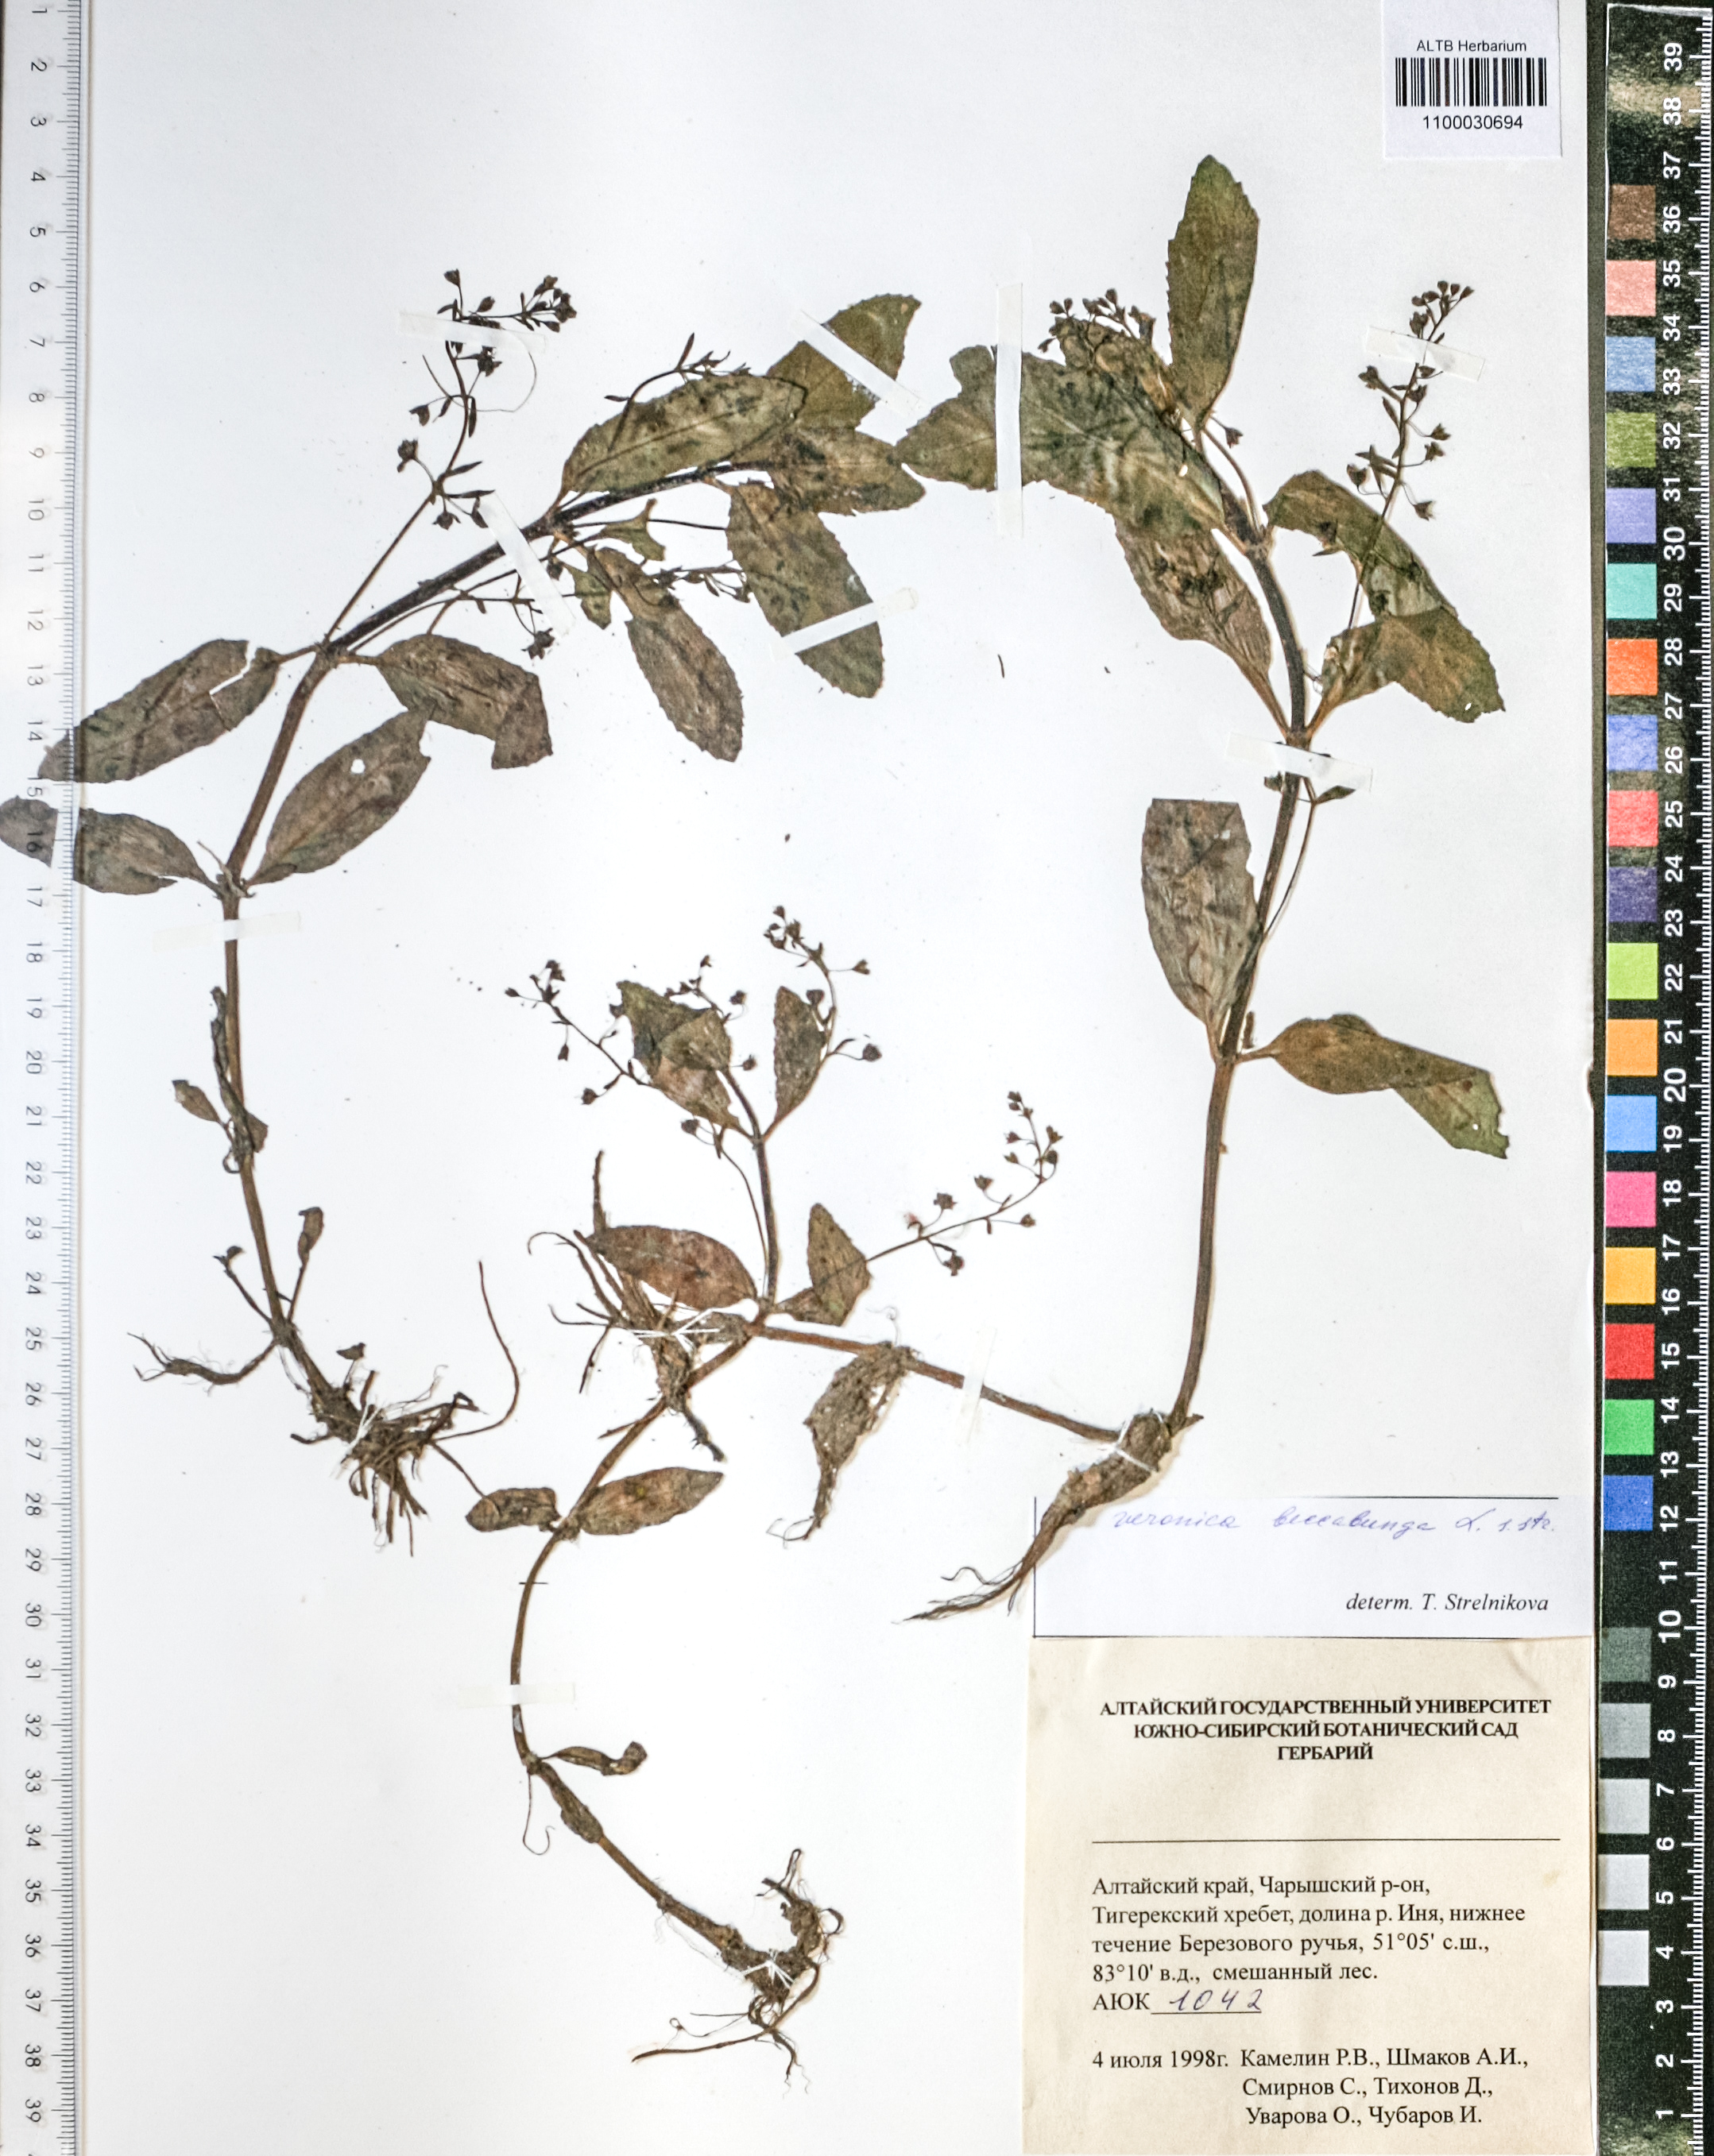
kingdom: Plantae
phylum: Tracheophyta
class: Magnoliopsida
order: Lamiales
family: Plantaginaceae
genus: Veronica
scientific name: Veronica beccabunga
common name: Brooklime
